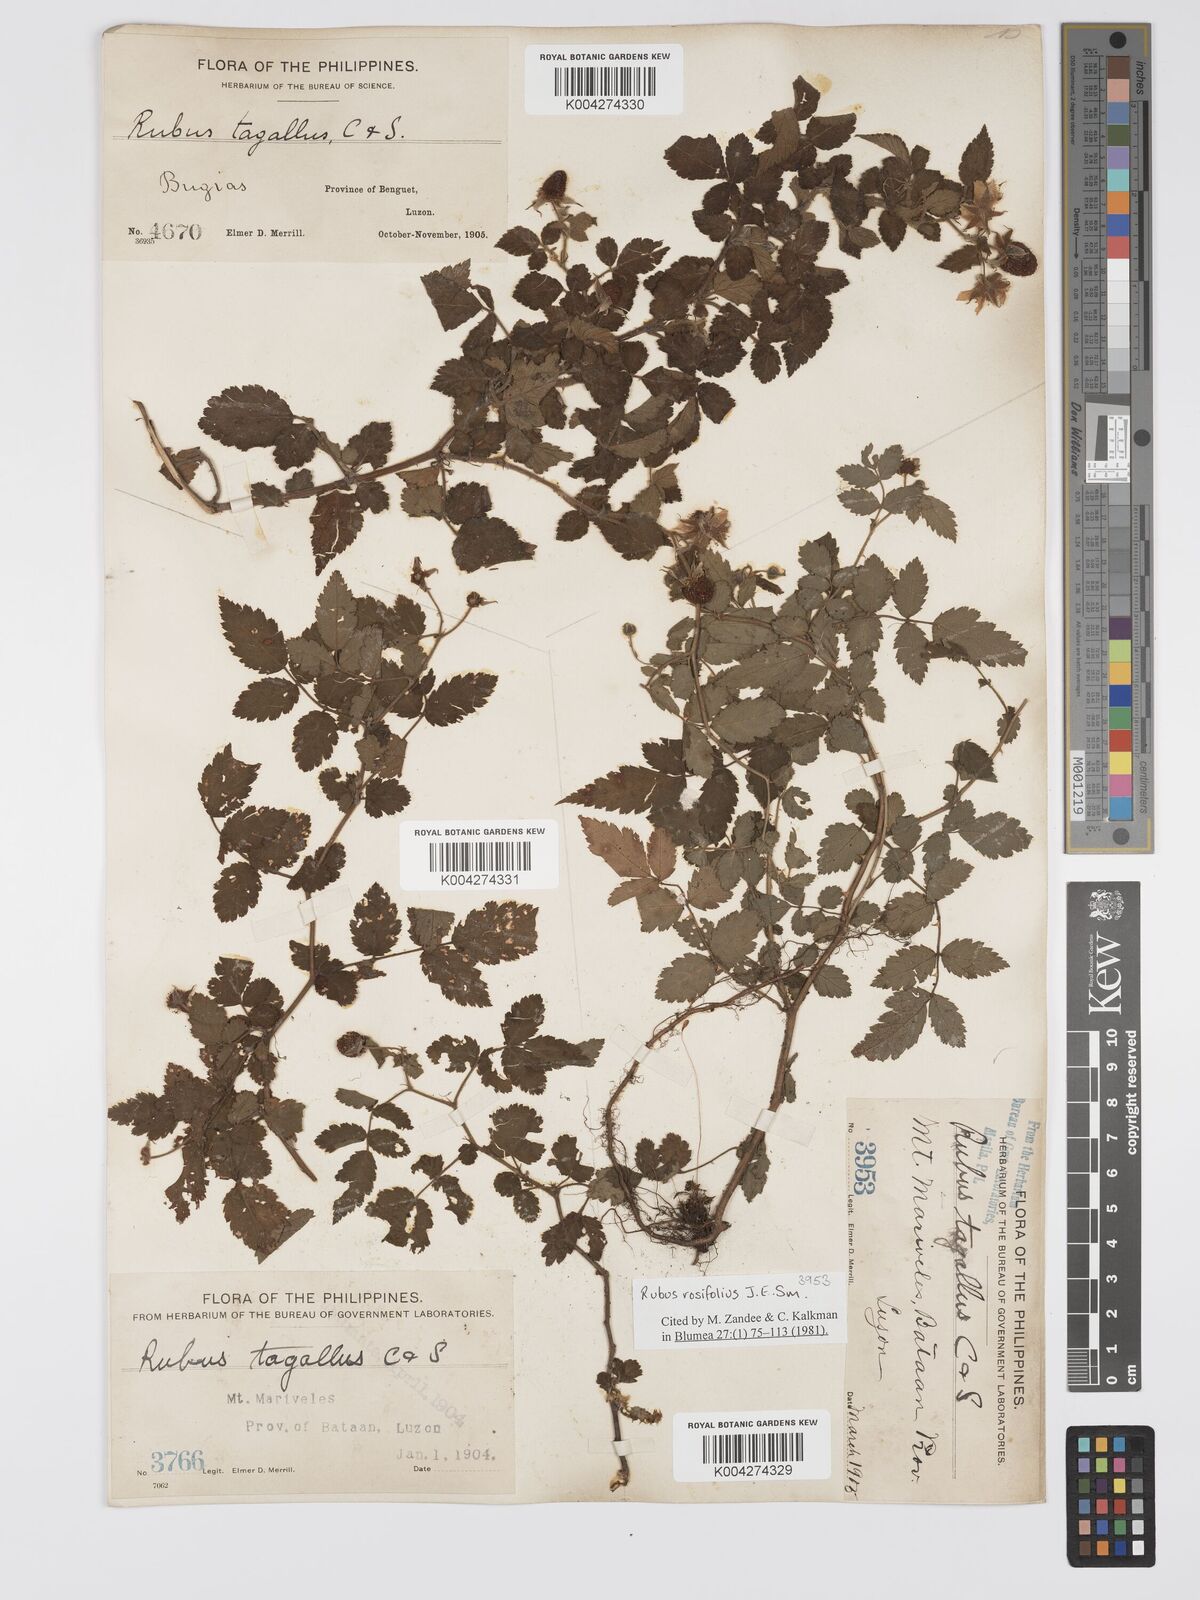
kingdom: Plantae
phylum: Tracheophyta
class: Magnoliopsida
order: Rosales
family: Rosaceae
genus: Rubus
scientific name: Rubus
